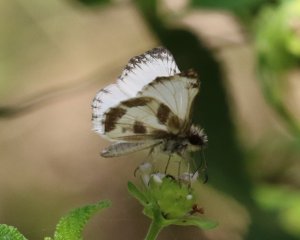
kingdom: Animalia
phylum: Arthropoda
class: Insecta
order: Lepidoptera
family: Hesperiidae
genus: Heliopetes
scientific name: Heliopetes macaira
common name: Turk's-cap White-Skipper
